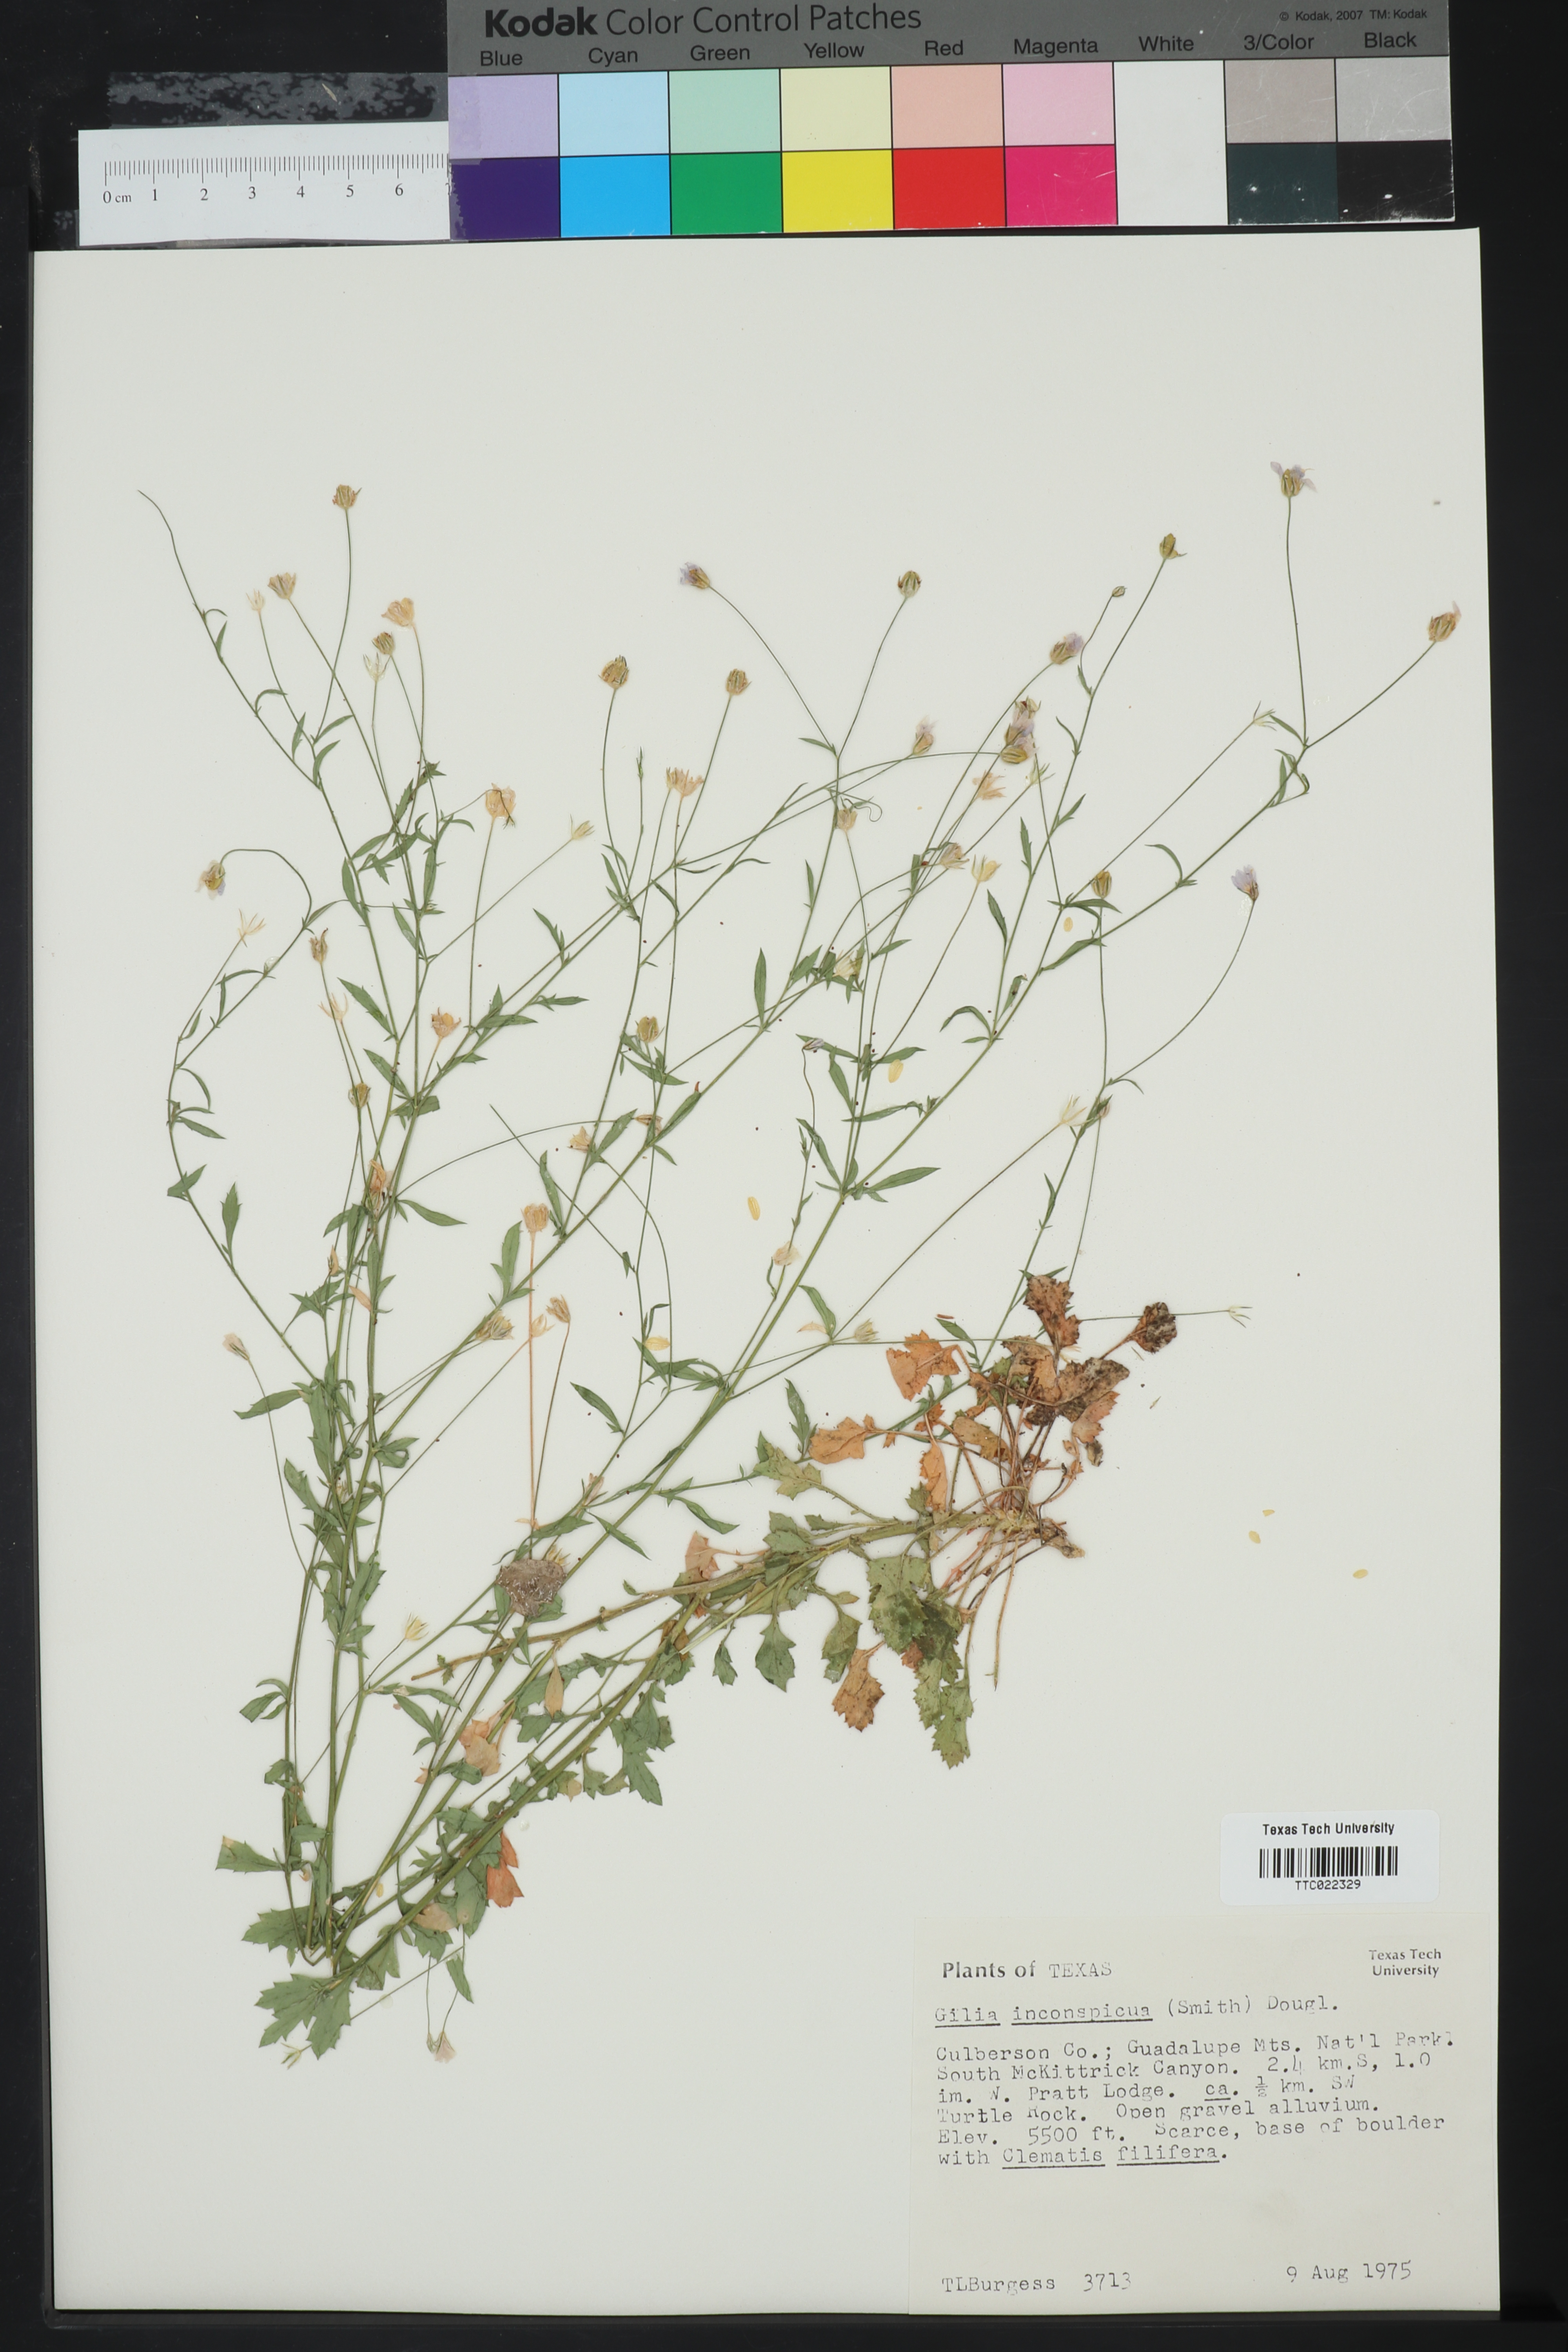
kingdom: Plantae
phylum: Tracheophyta
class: Magnoliopsida
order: Ericales
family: Polemoniaceae
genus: Gilia
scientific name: Gilia inconspicua
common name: Shy gilia
